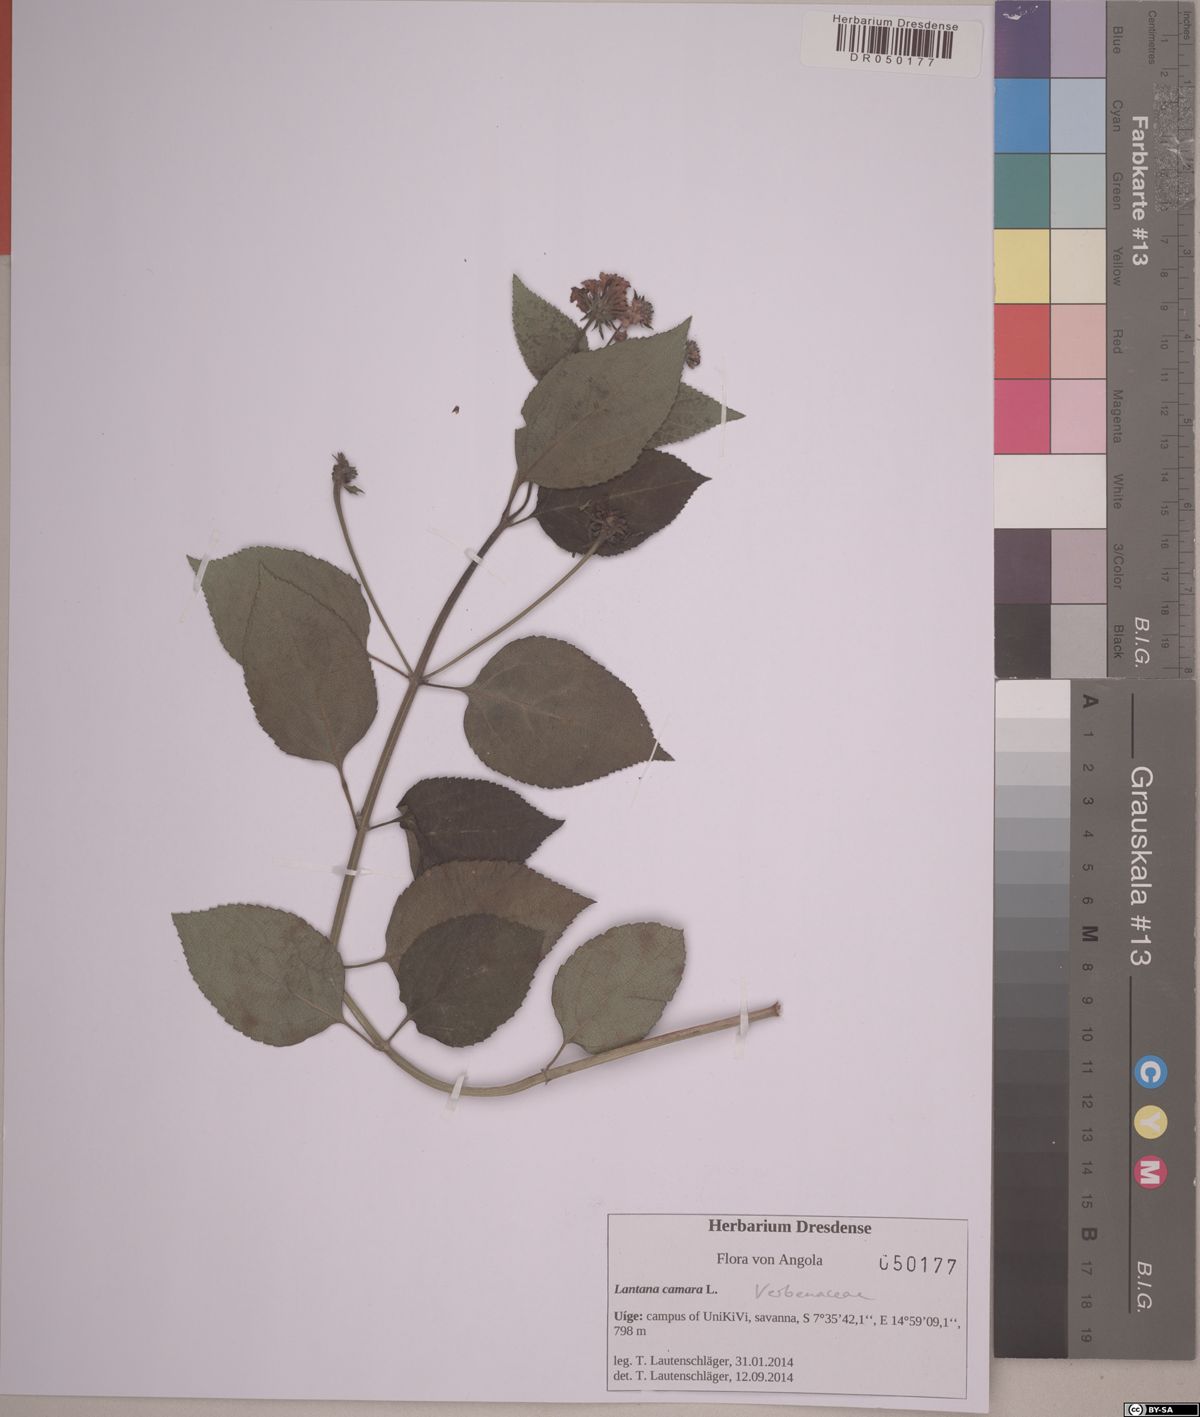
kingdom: Plantae
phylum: Tracheophyta
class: Magnoliopsida
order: Lamiales
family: Verbenaceae
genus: Lantana
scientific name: Lantana horrida
